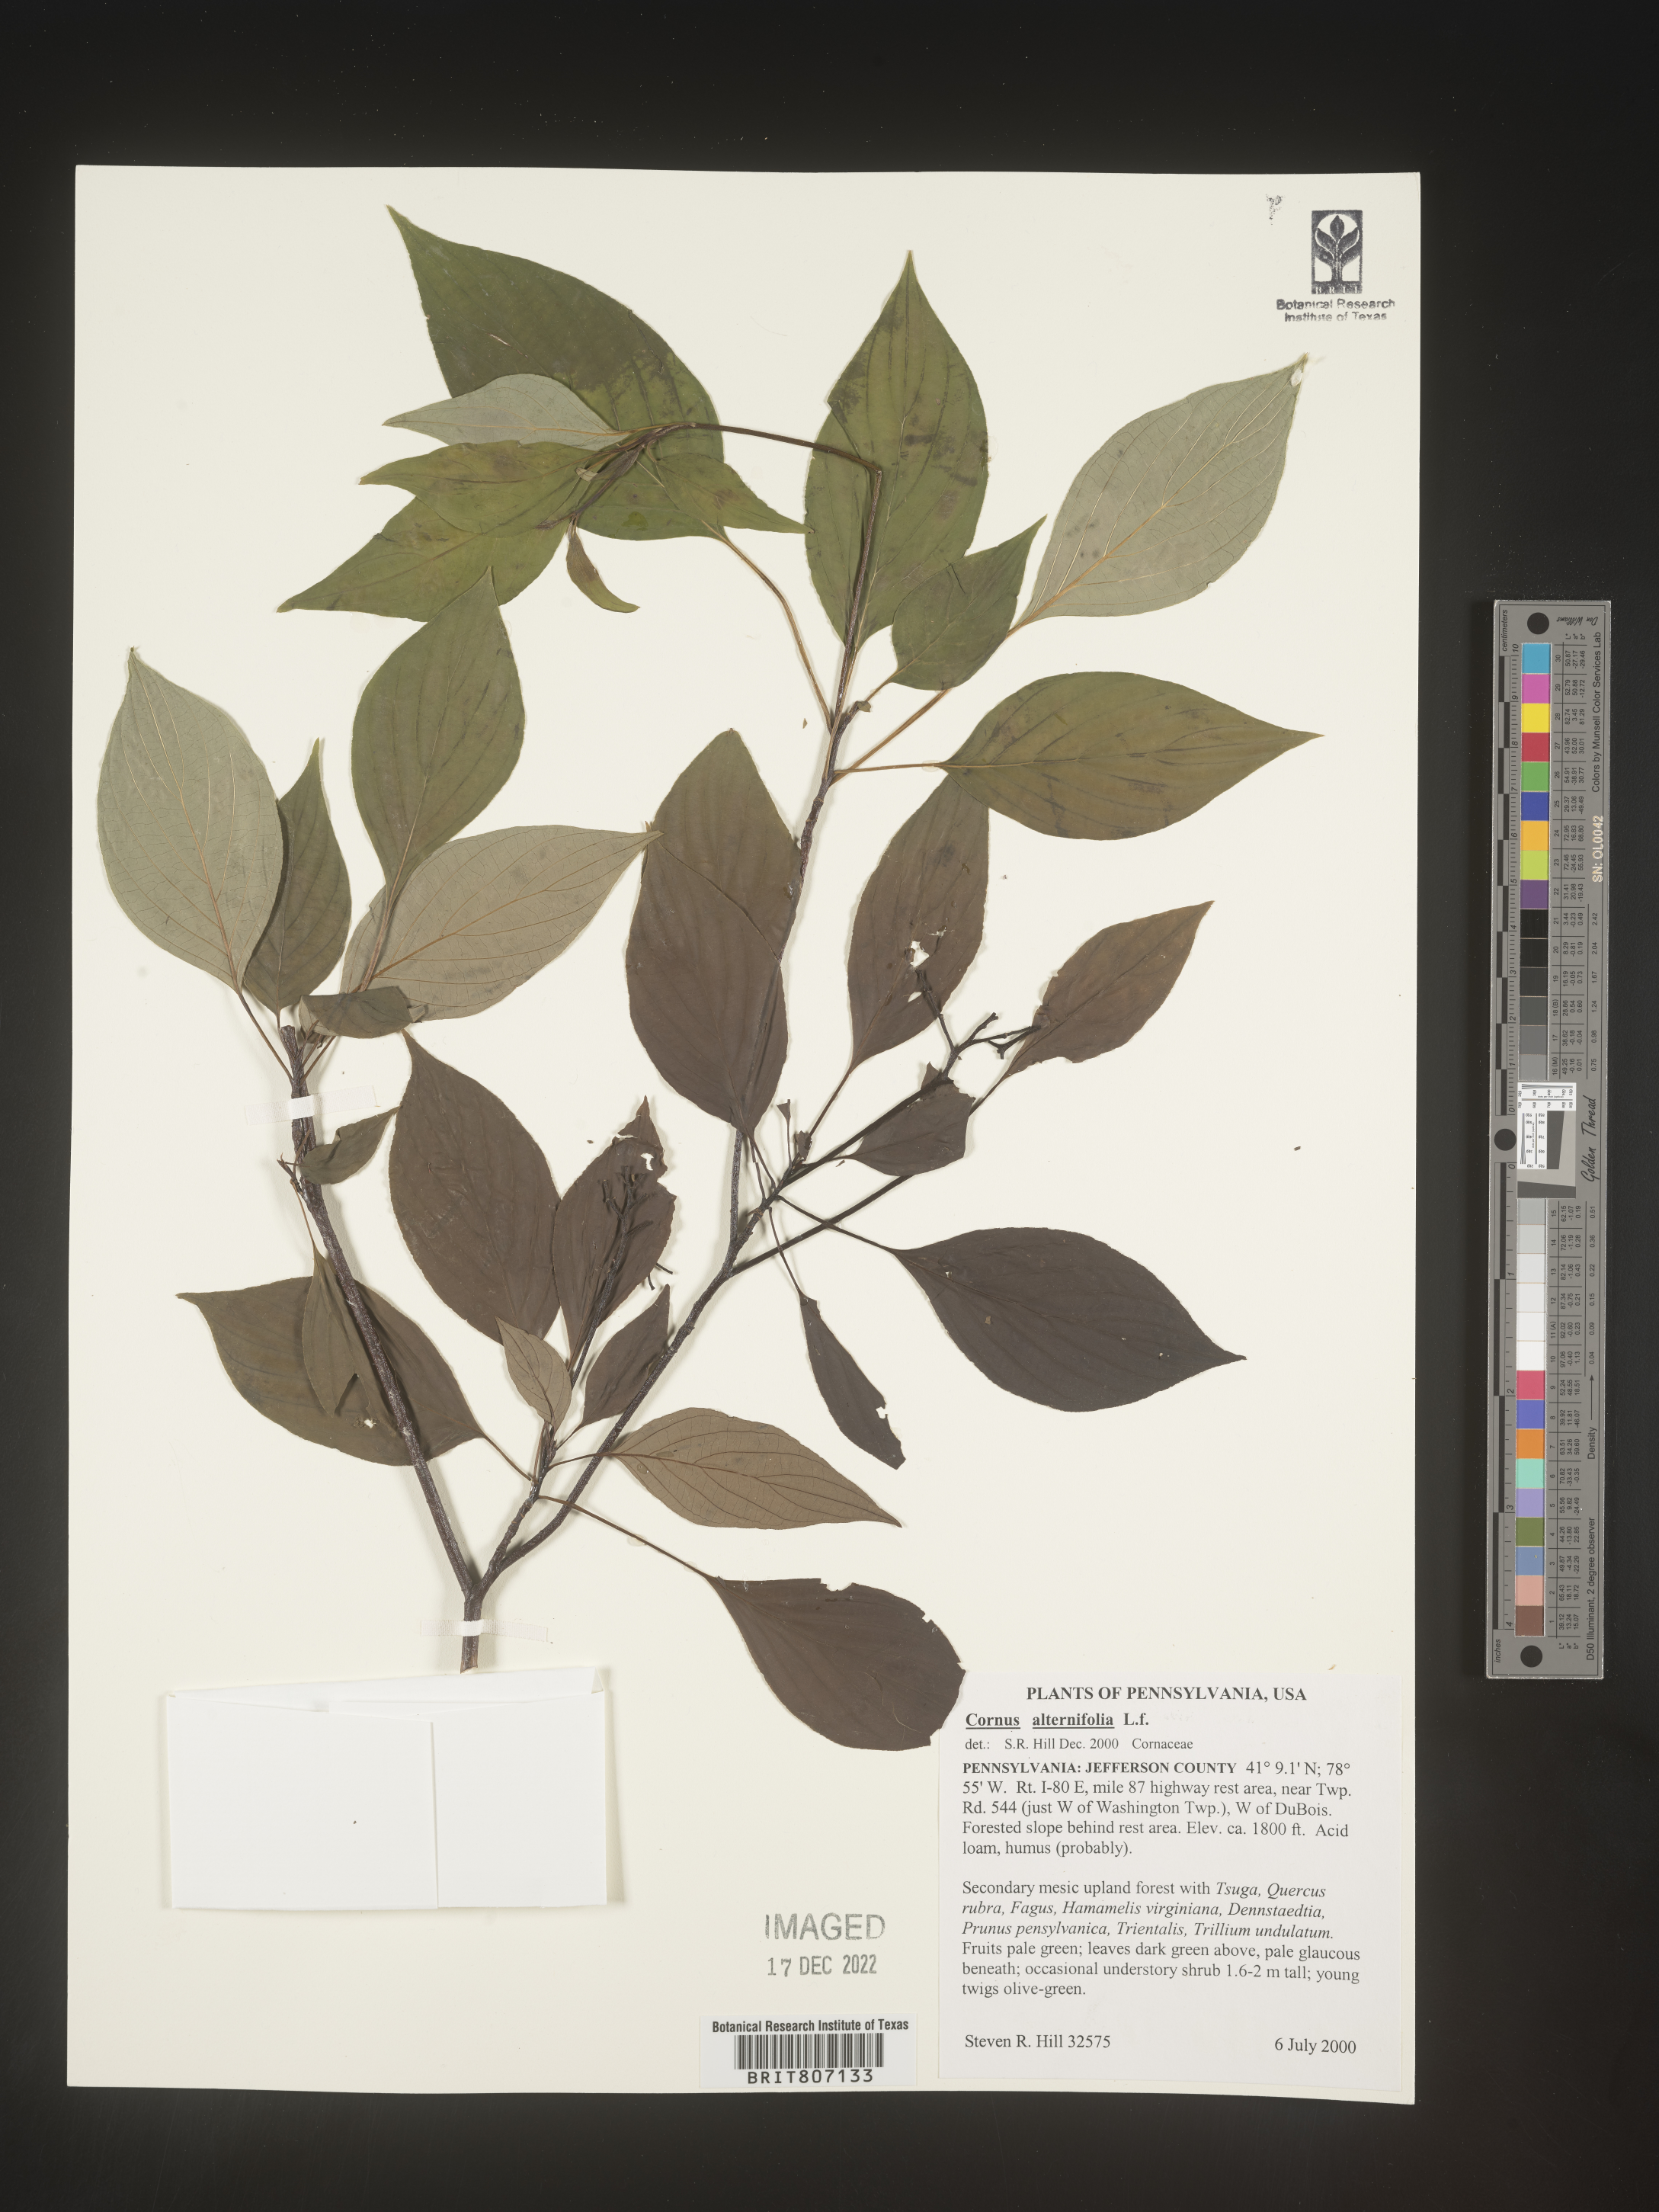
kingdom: Plantae
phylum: Tracheophyta
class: Magnoliopsida
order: Cornales
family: Cornaceae
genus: Cornus
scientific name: Cornus alternifolia
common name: Pagoda dogwood
